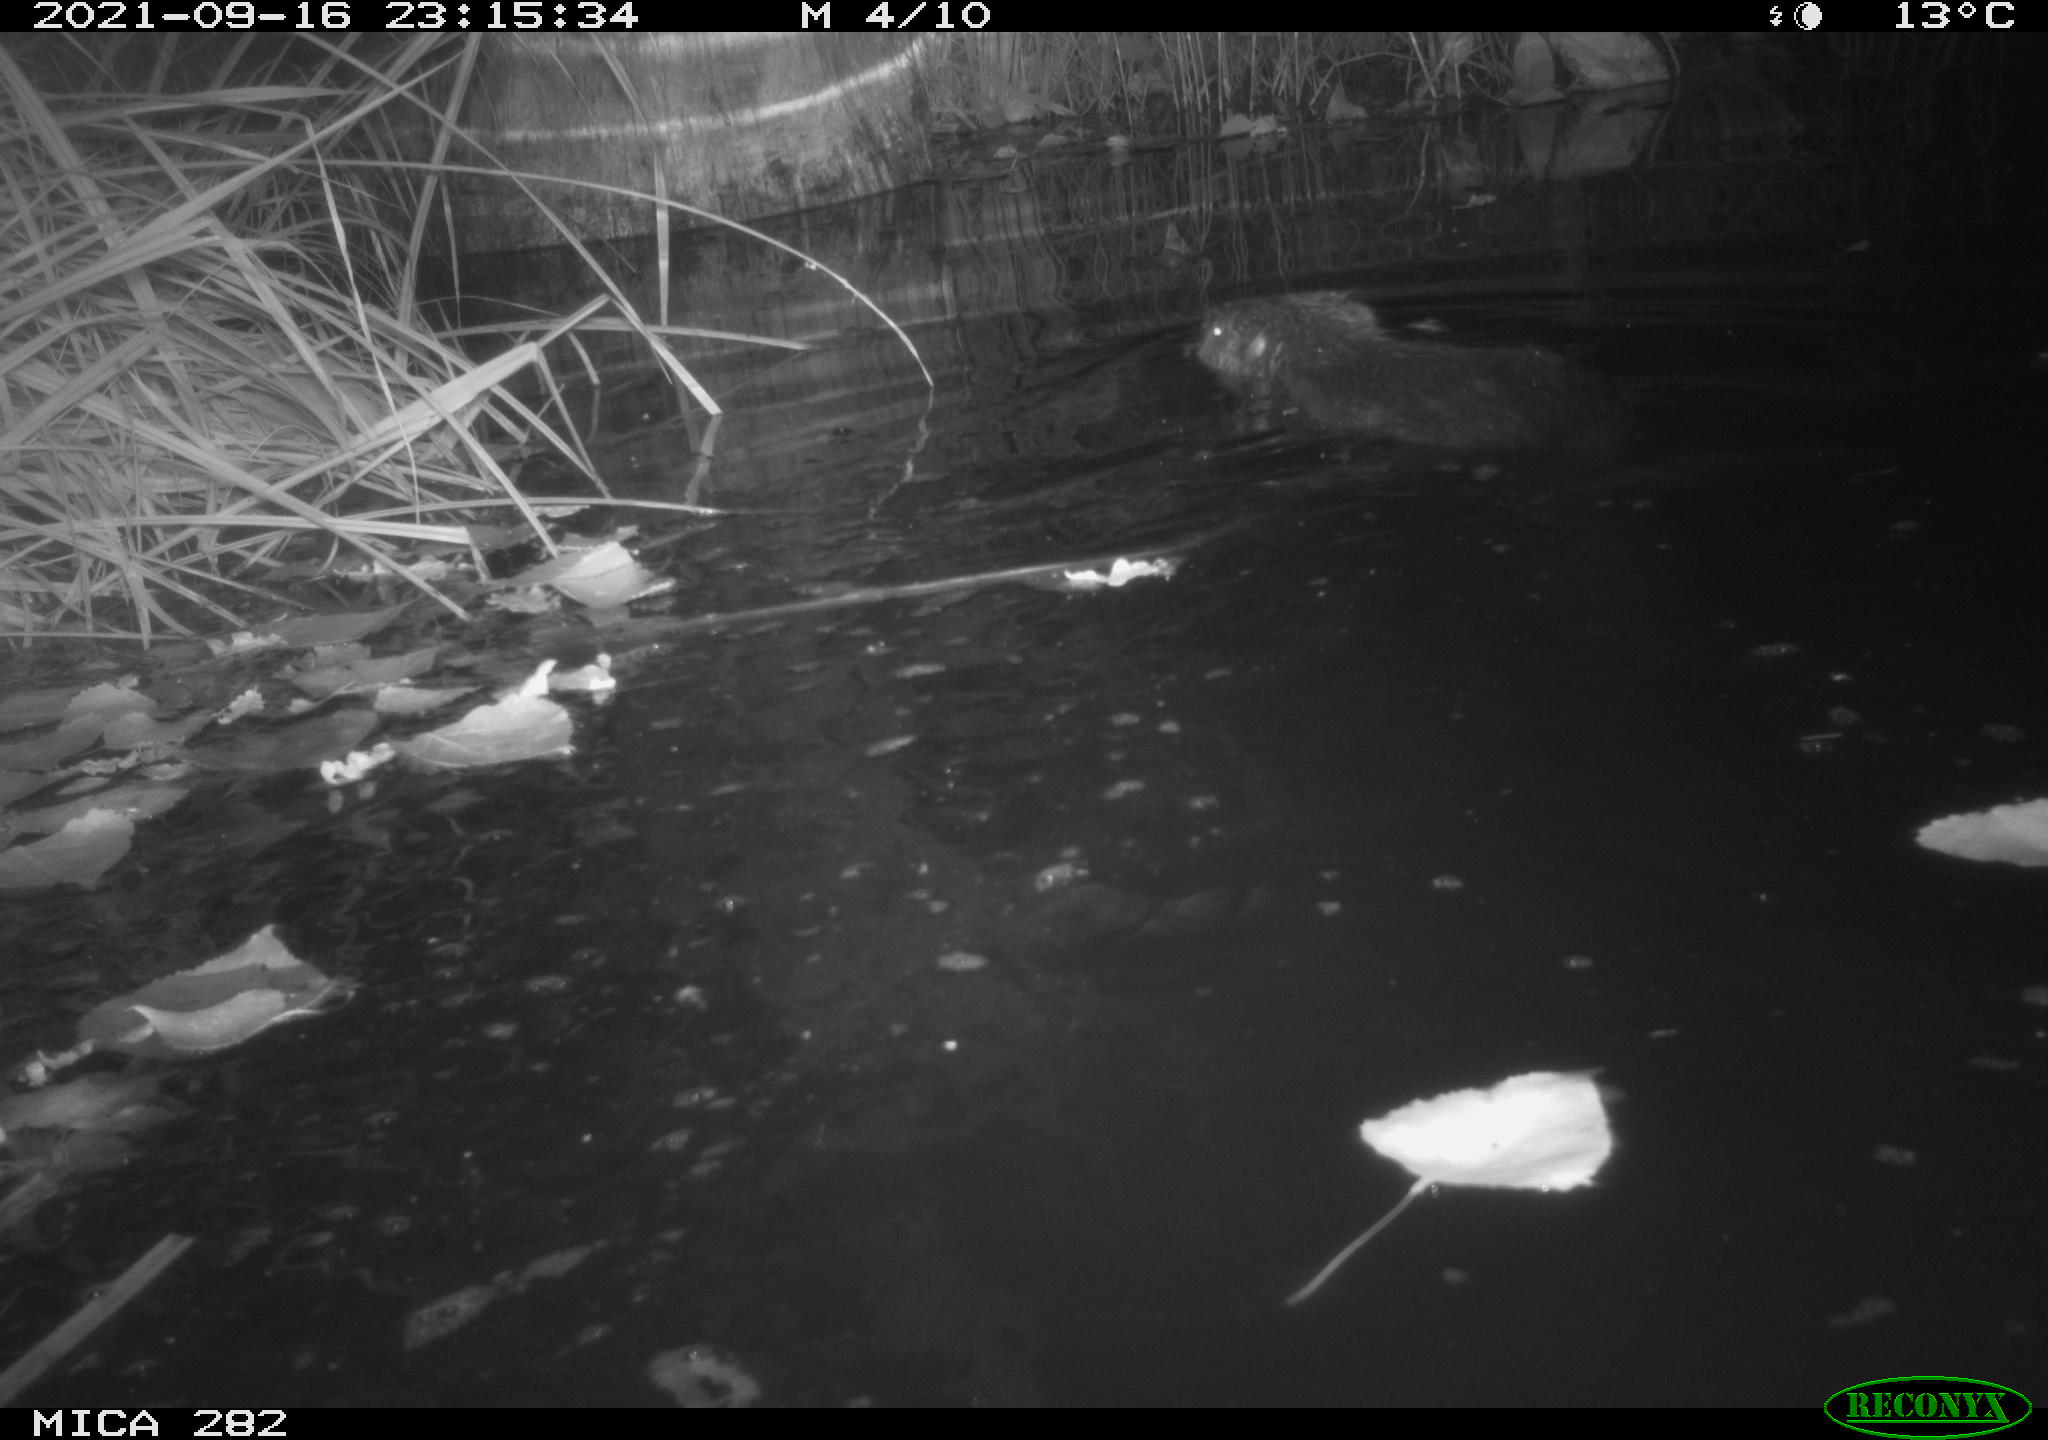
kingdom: Animalia
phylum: Chordata
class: Mammalia
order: Rodentia
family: Castoridae
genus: Castor
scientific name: Castor fiber
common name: Eurasian beaver
